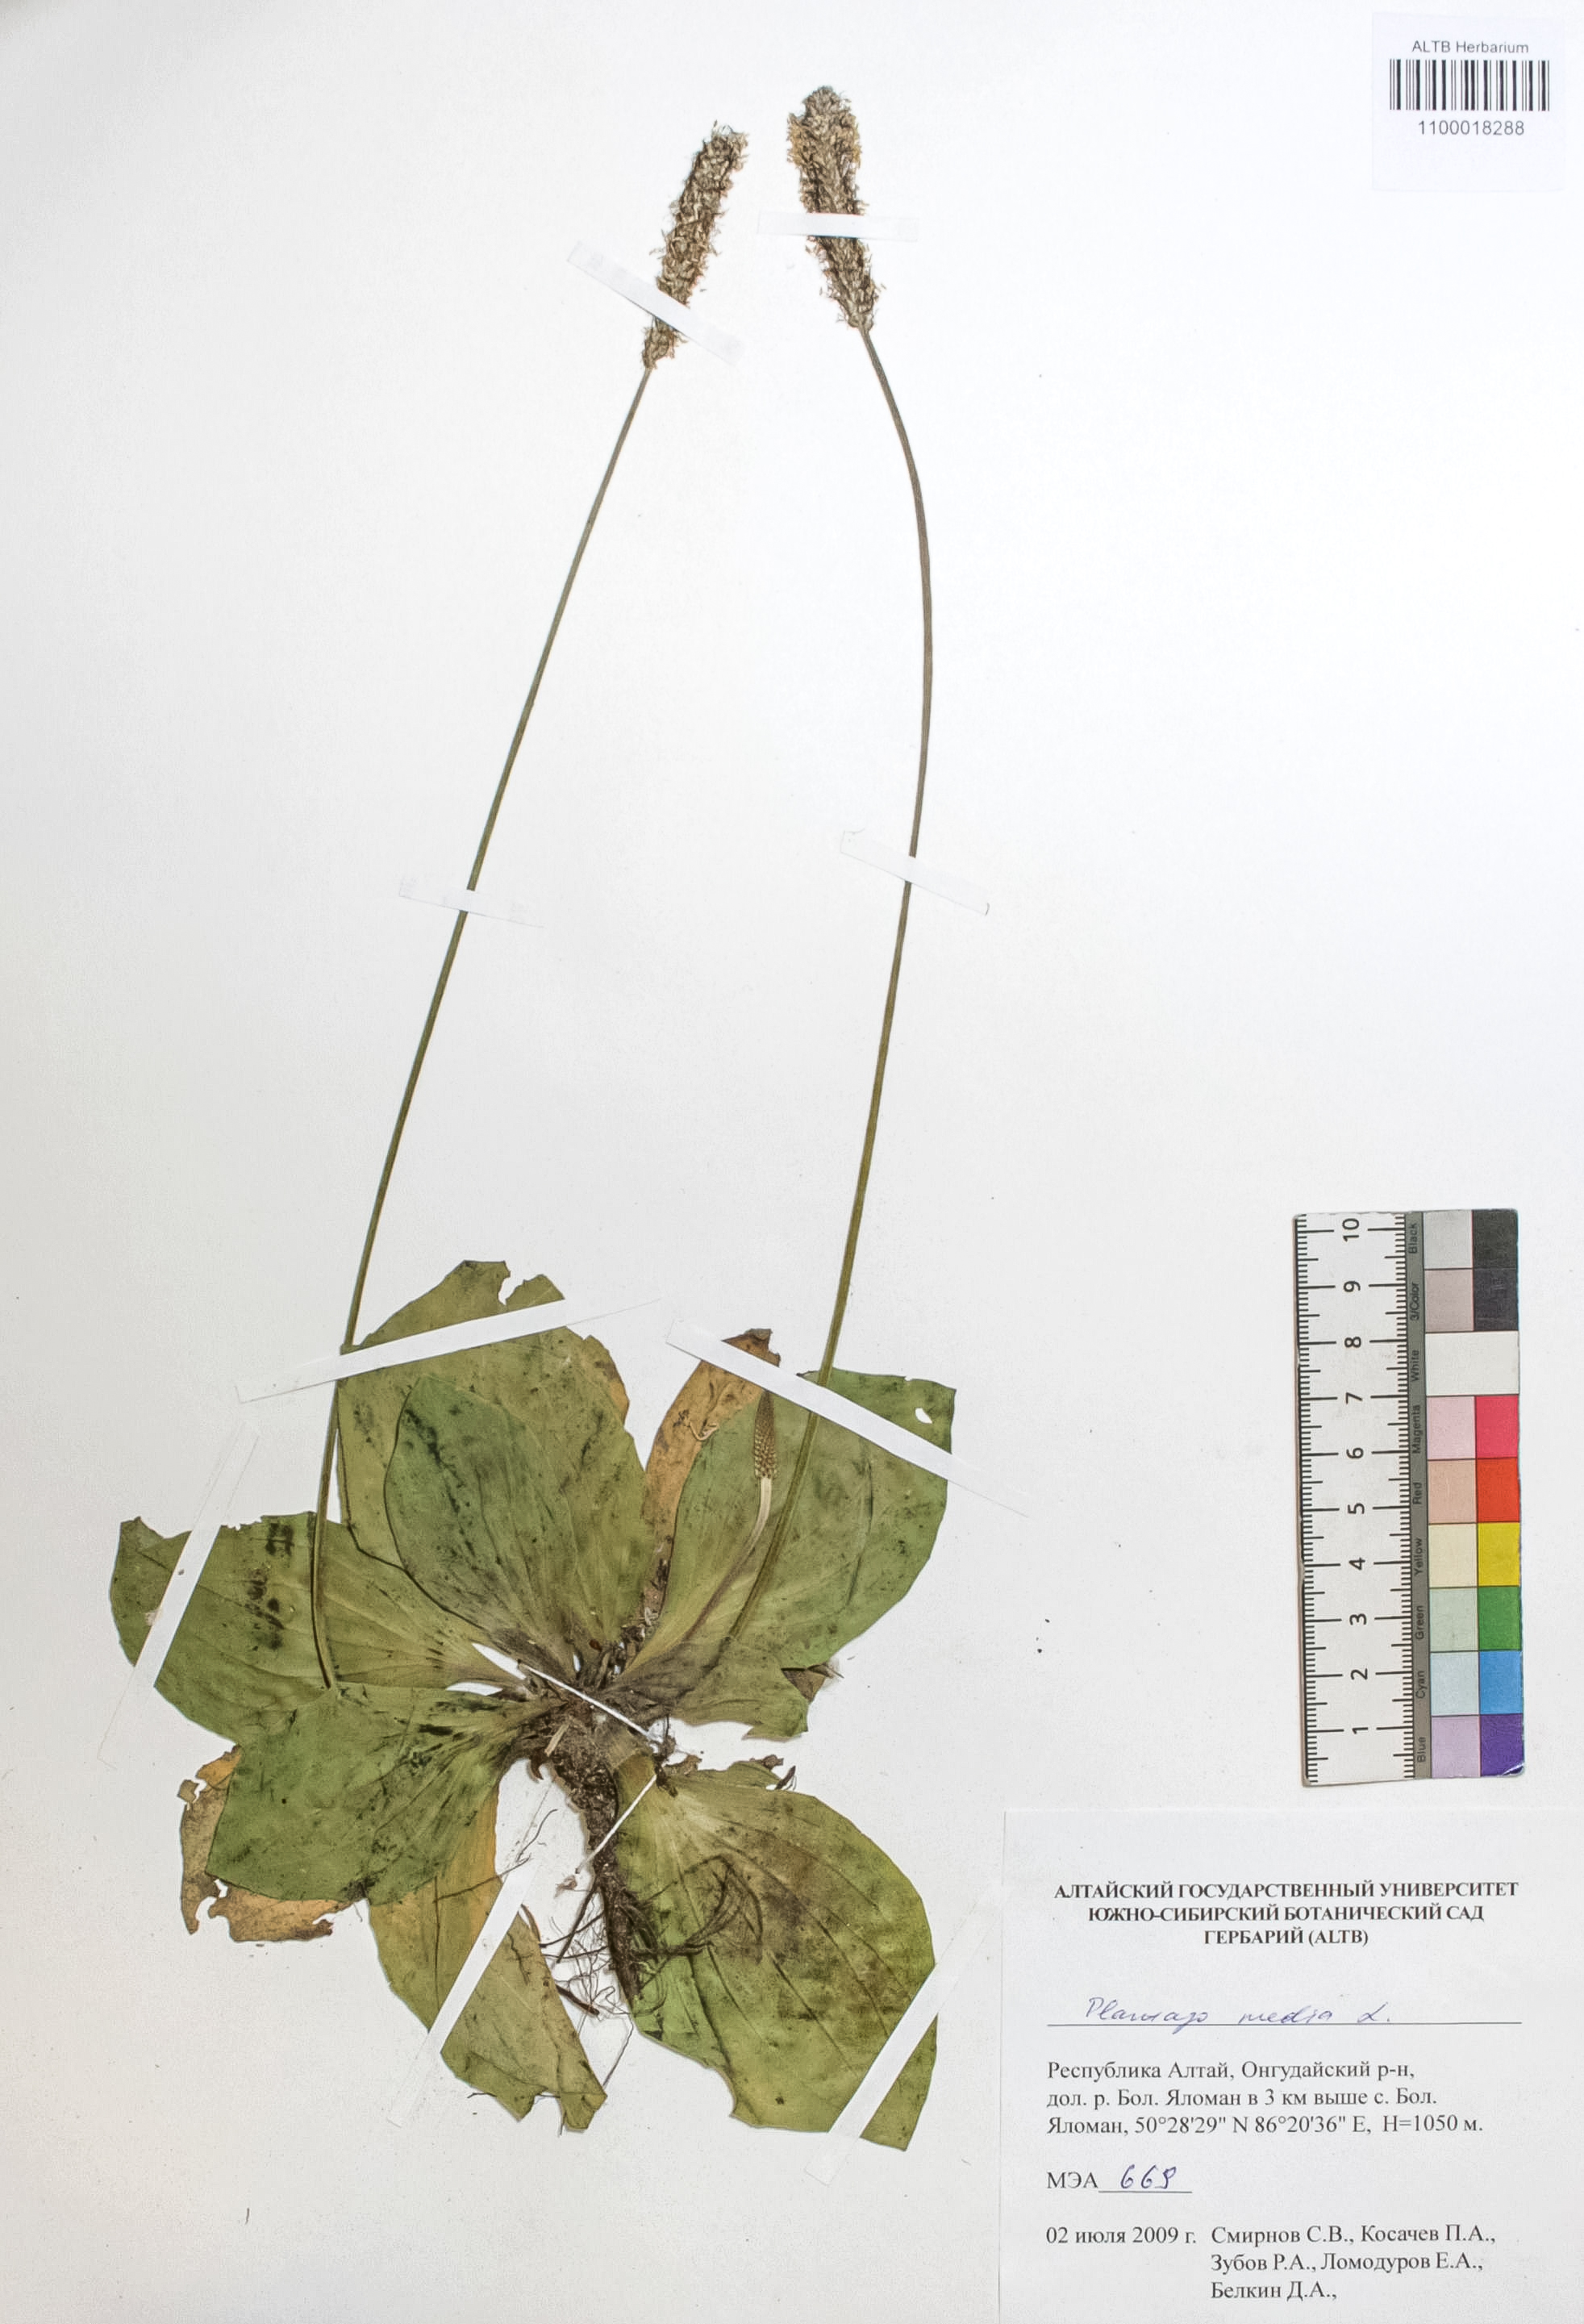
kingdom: Plantae
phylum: Tracheophyta
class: Magnoliopsida
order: Lamiales
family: Plantaginaceae
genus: Plantago
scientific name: Plantago media
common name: Hoary plantain
